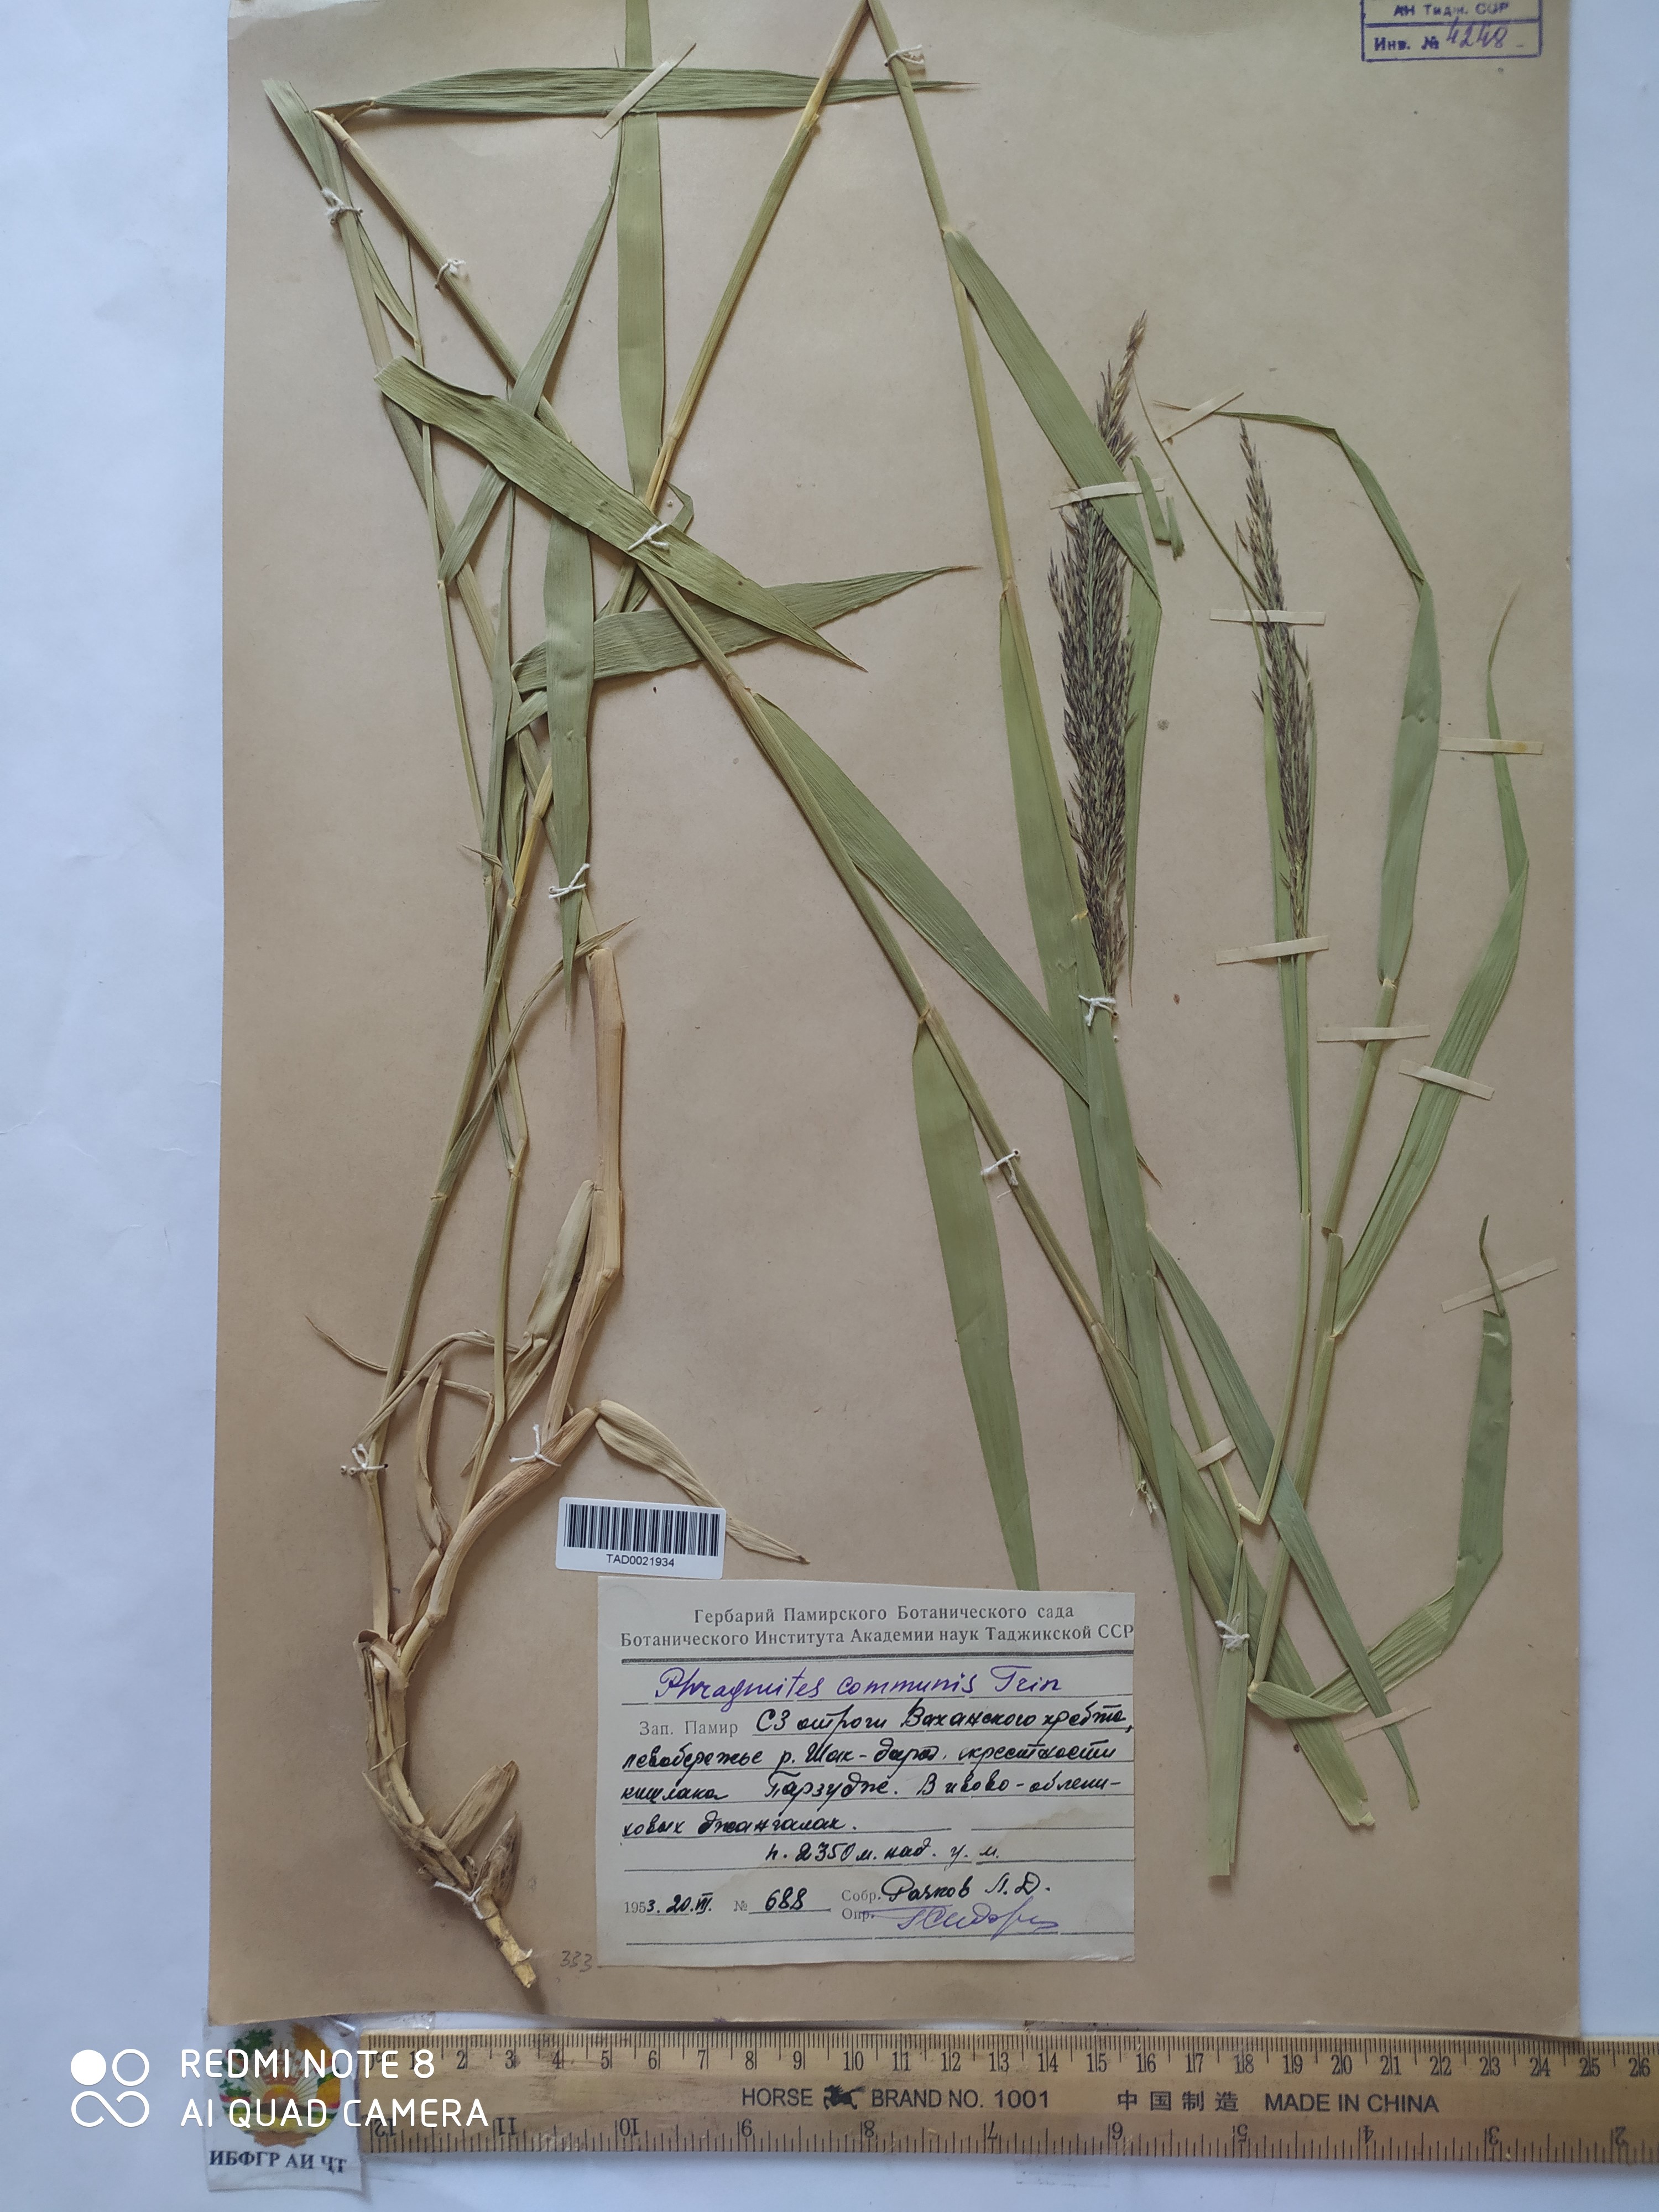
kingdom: Plantae
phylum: Tracheophyta
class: Liliopsida
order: Poales
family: Poaceae
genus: Phragmites
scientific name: Phragmites australis
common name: Common reed
